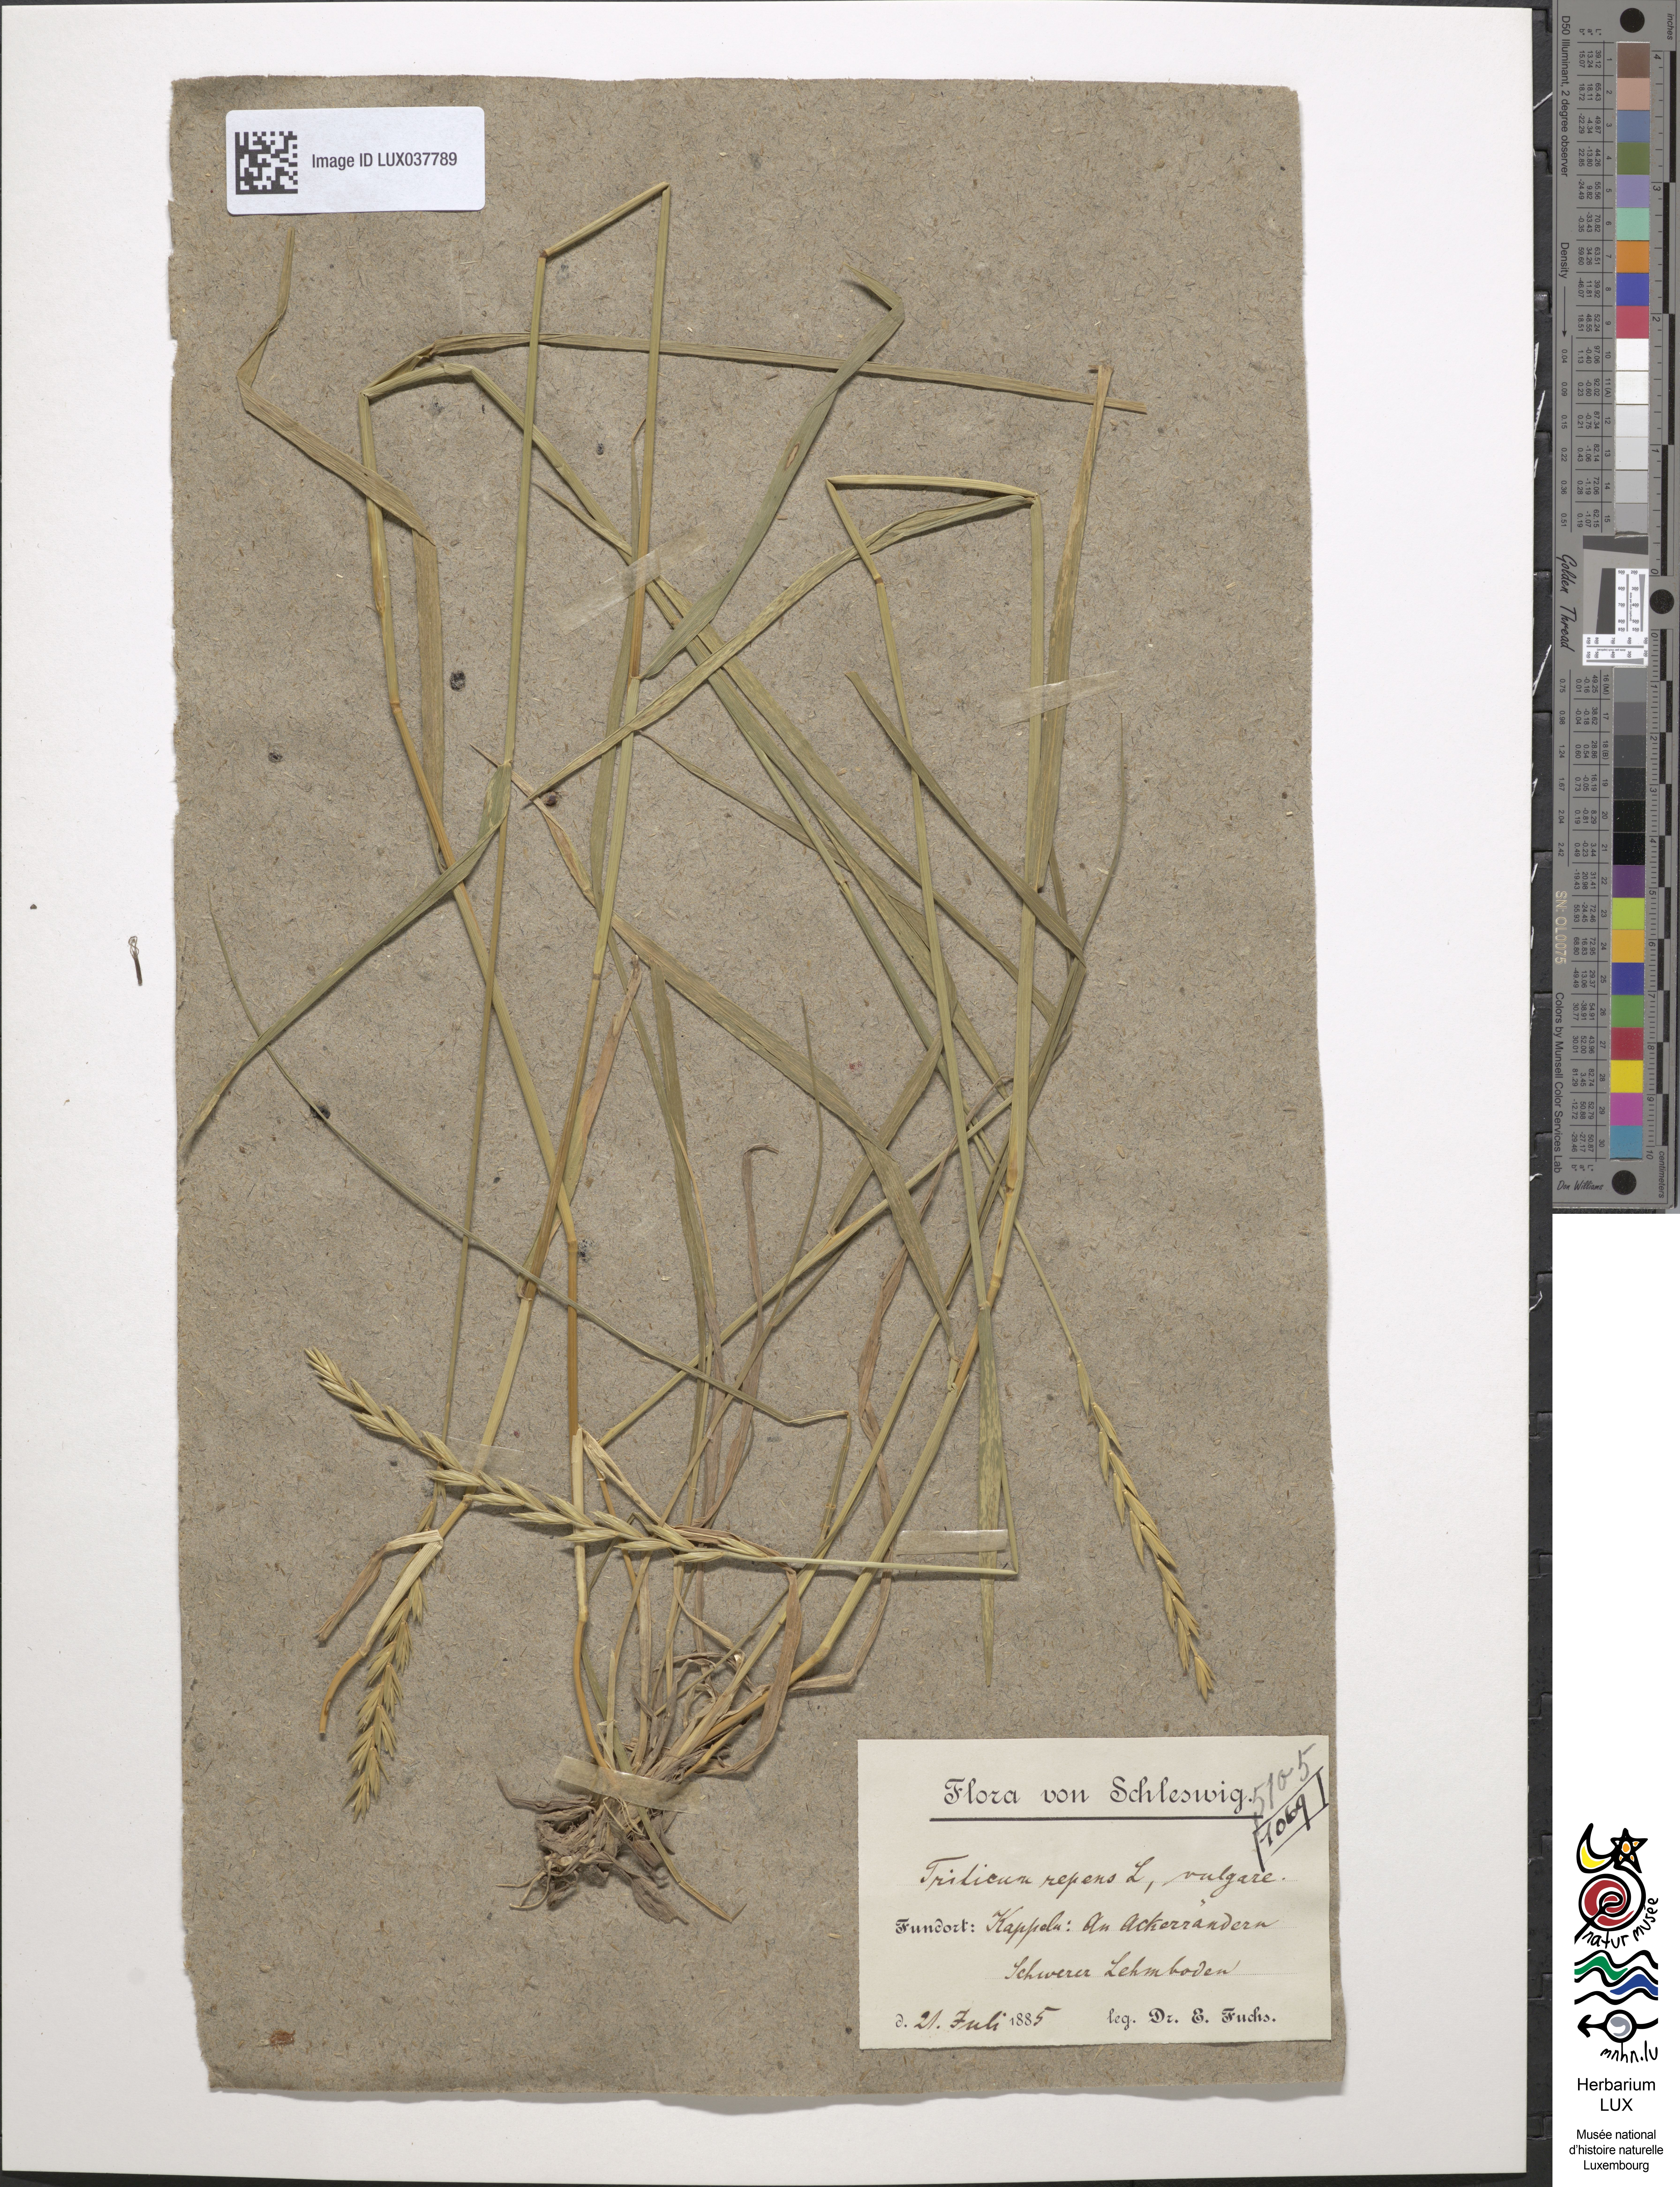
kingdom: Plantae
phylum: Tracheophyta
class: Liliopsida
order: Poales
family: Poaceae
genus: Elymus
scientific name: Elymus repens
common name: Quackgrass
